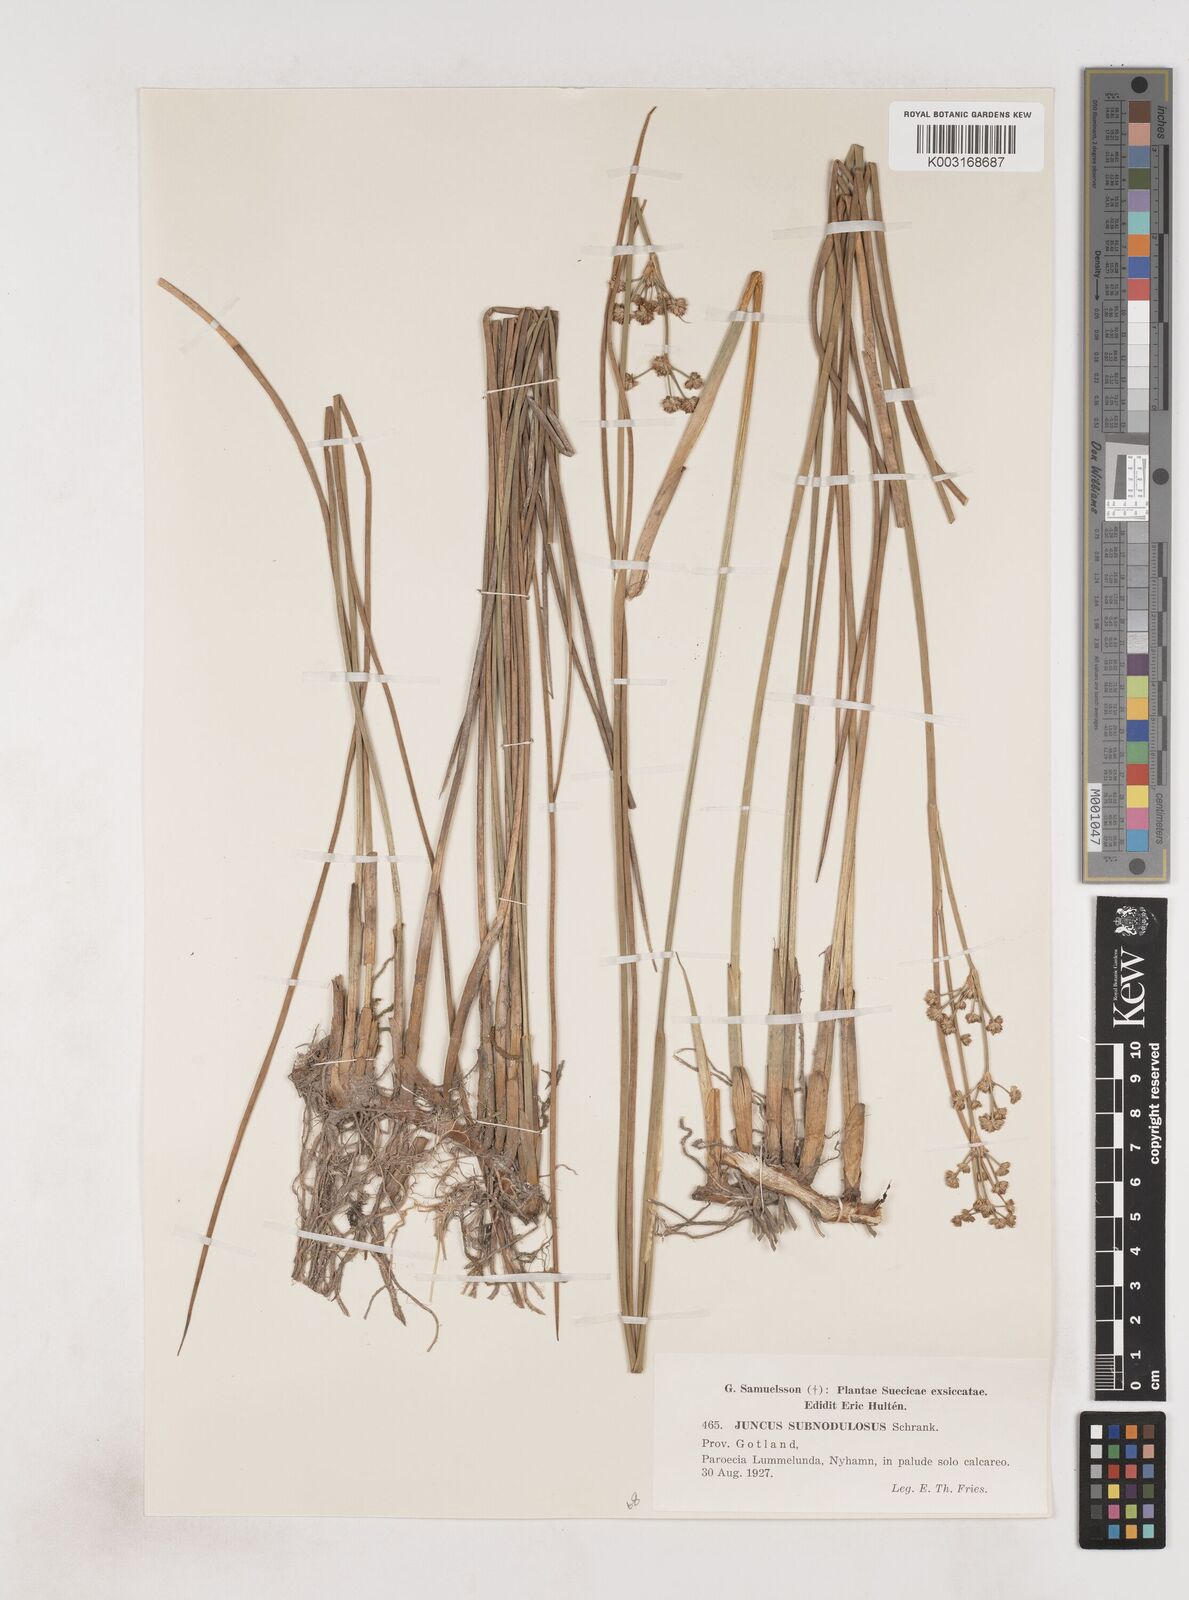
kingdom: Plantae
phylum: Tracheophyta
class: Liliopsida
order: Poales
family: Juncaceae
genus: Juncus
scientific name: Juncus subnodulosus
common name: Blunt-flowered rush
